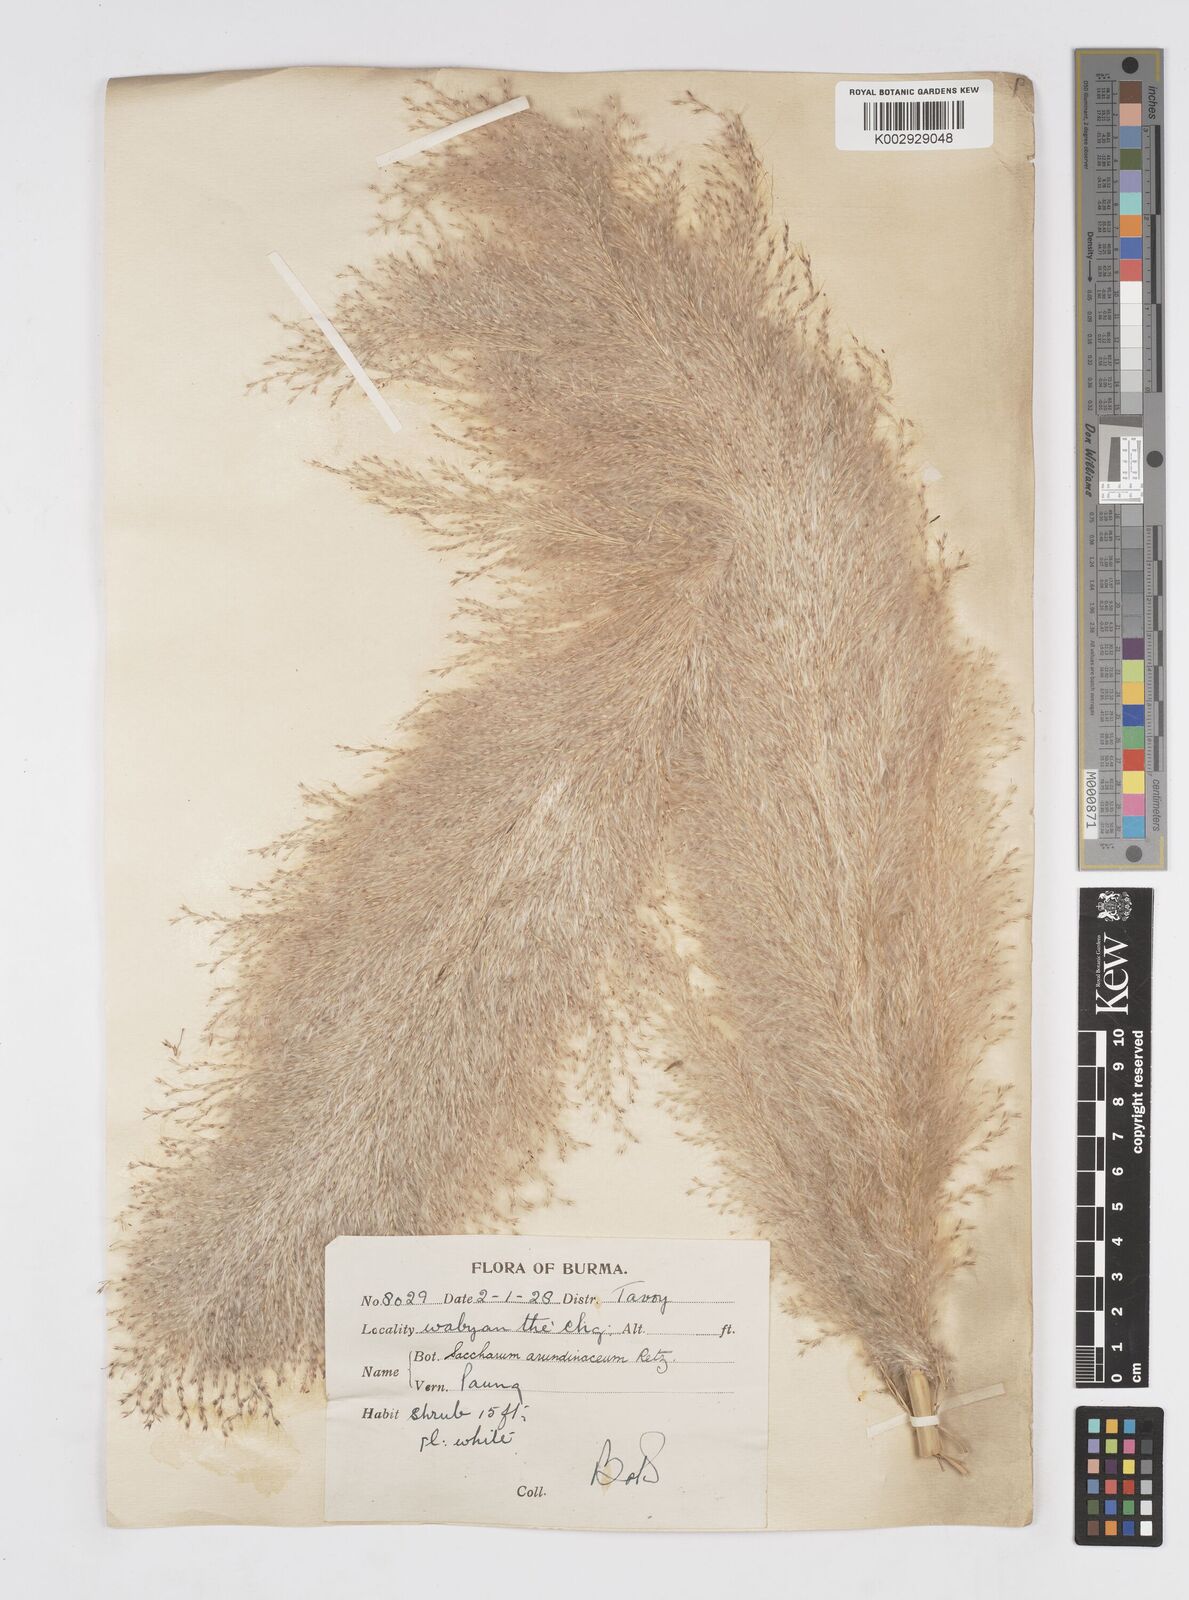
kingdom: Plantae
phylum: Tracheophyta
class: Liliopsida
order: Poales
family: Poaceae
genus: Tripidium
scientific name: Tripidium arundinaceum
